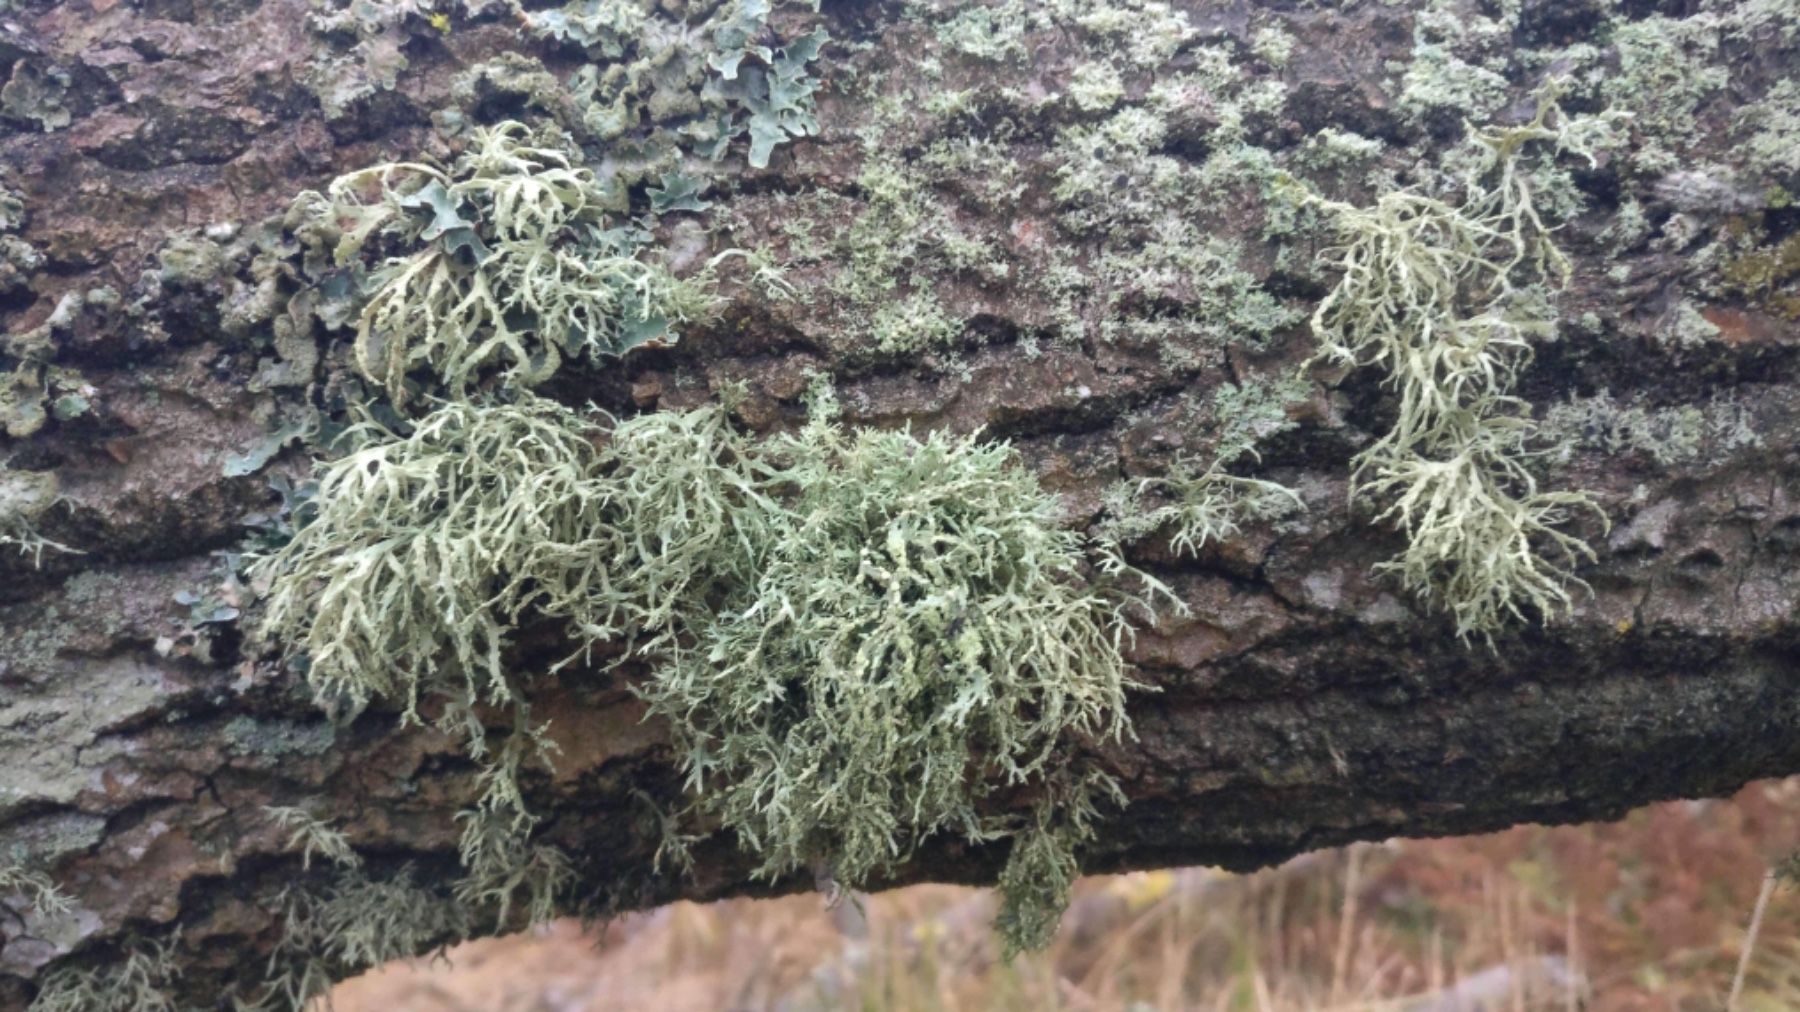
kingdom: Fungi
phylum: Ascomycota
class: Lecanoromycetes
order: Lecanorales
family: Ramalinaceae
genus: Ramalina
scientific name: Ramalina farinacea
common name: melet grenlav
